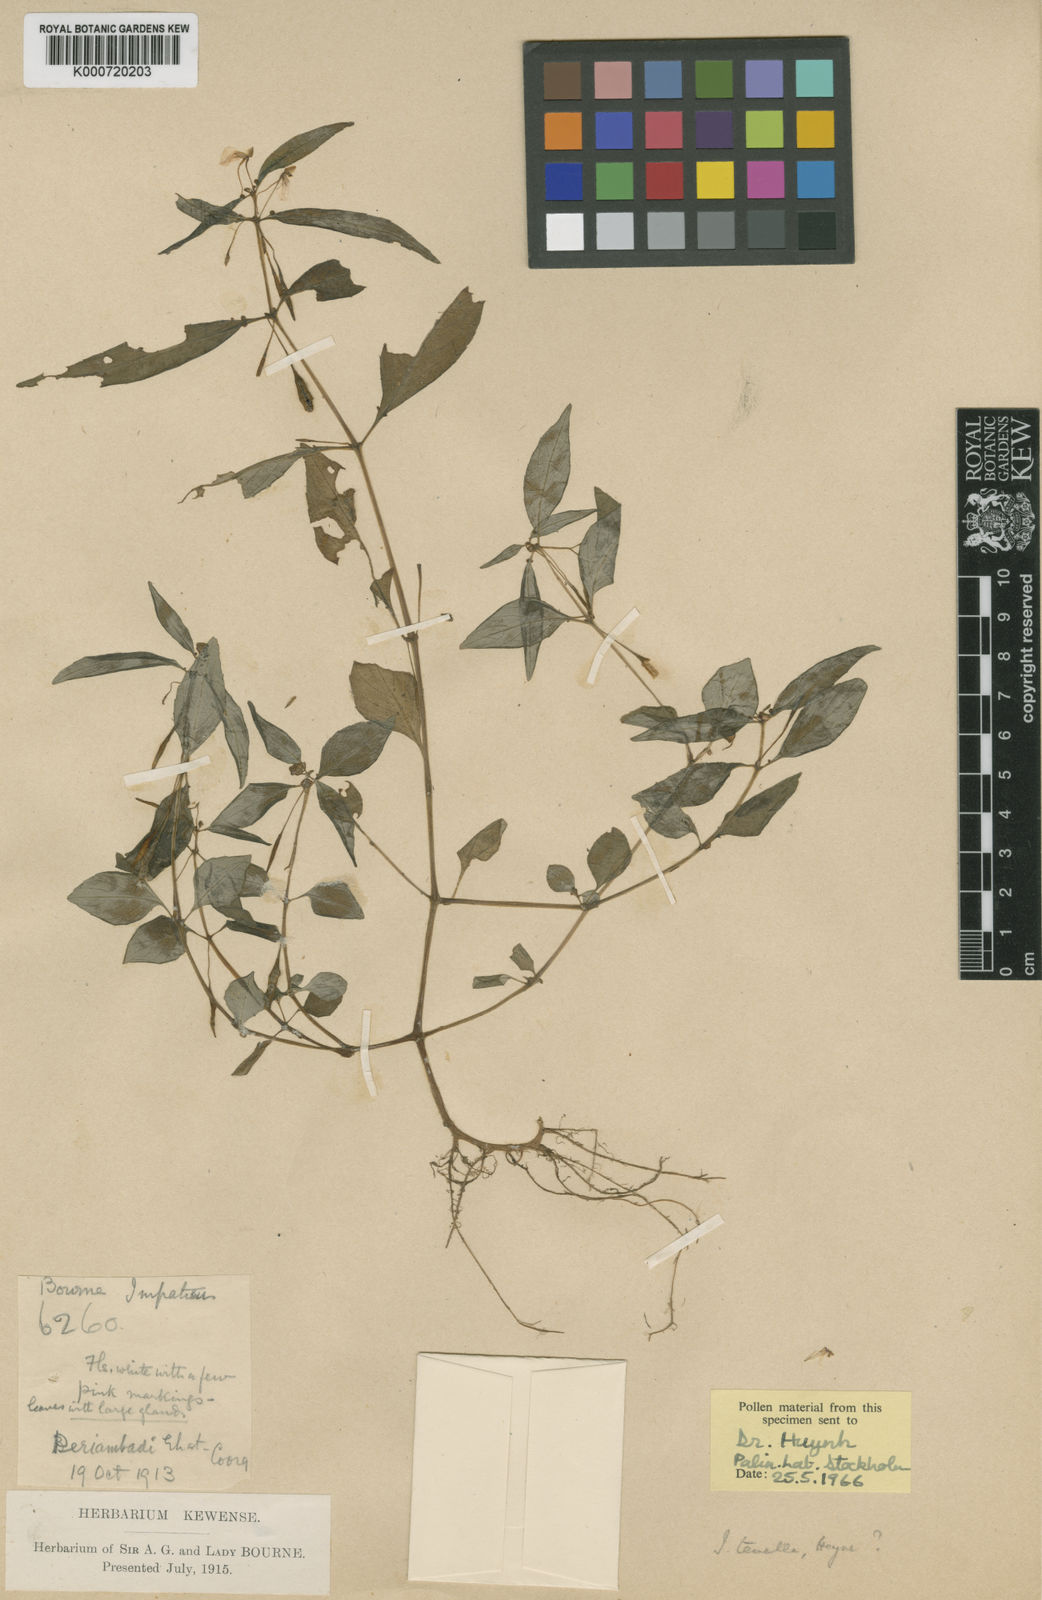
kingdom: Plantae
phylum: Tracheophyta
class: Magnoliopsida
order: Ericales
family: Balsaminaceae
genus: Impatiens
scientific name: Impatiens minor
